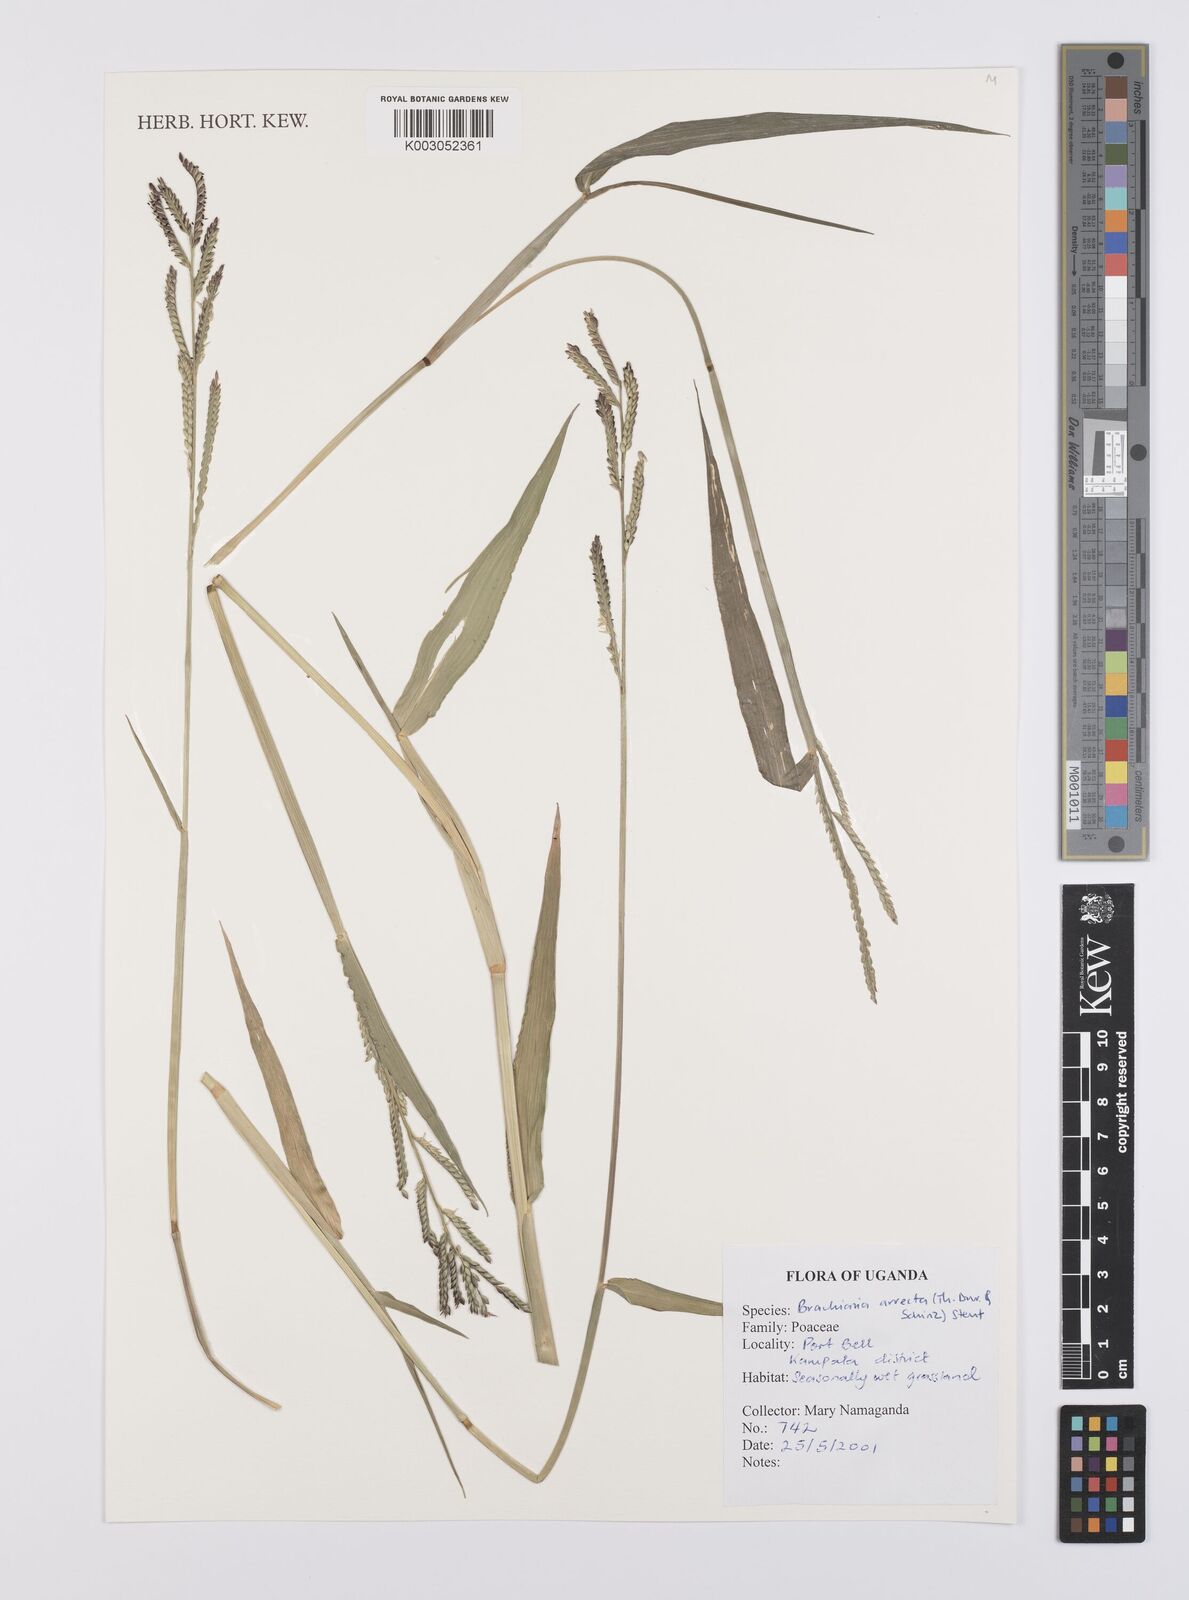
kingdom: Plantae
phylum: Tracheophyta
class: Liliopsida
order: Poales
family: Poaceae
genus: Urochloa
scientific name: Urochloa arrecta
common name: African signalgrass
